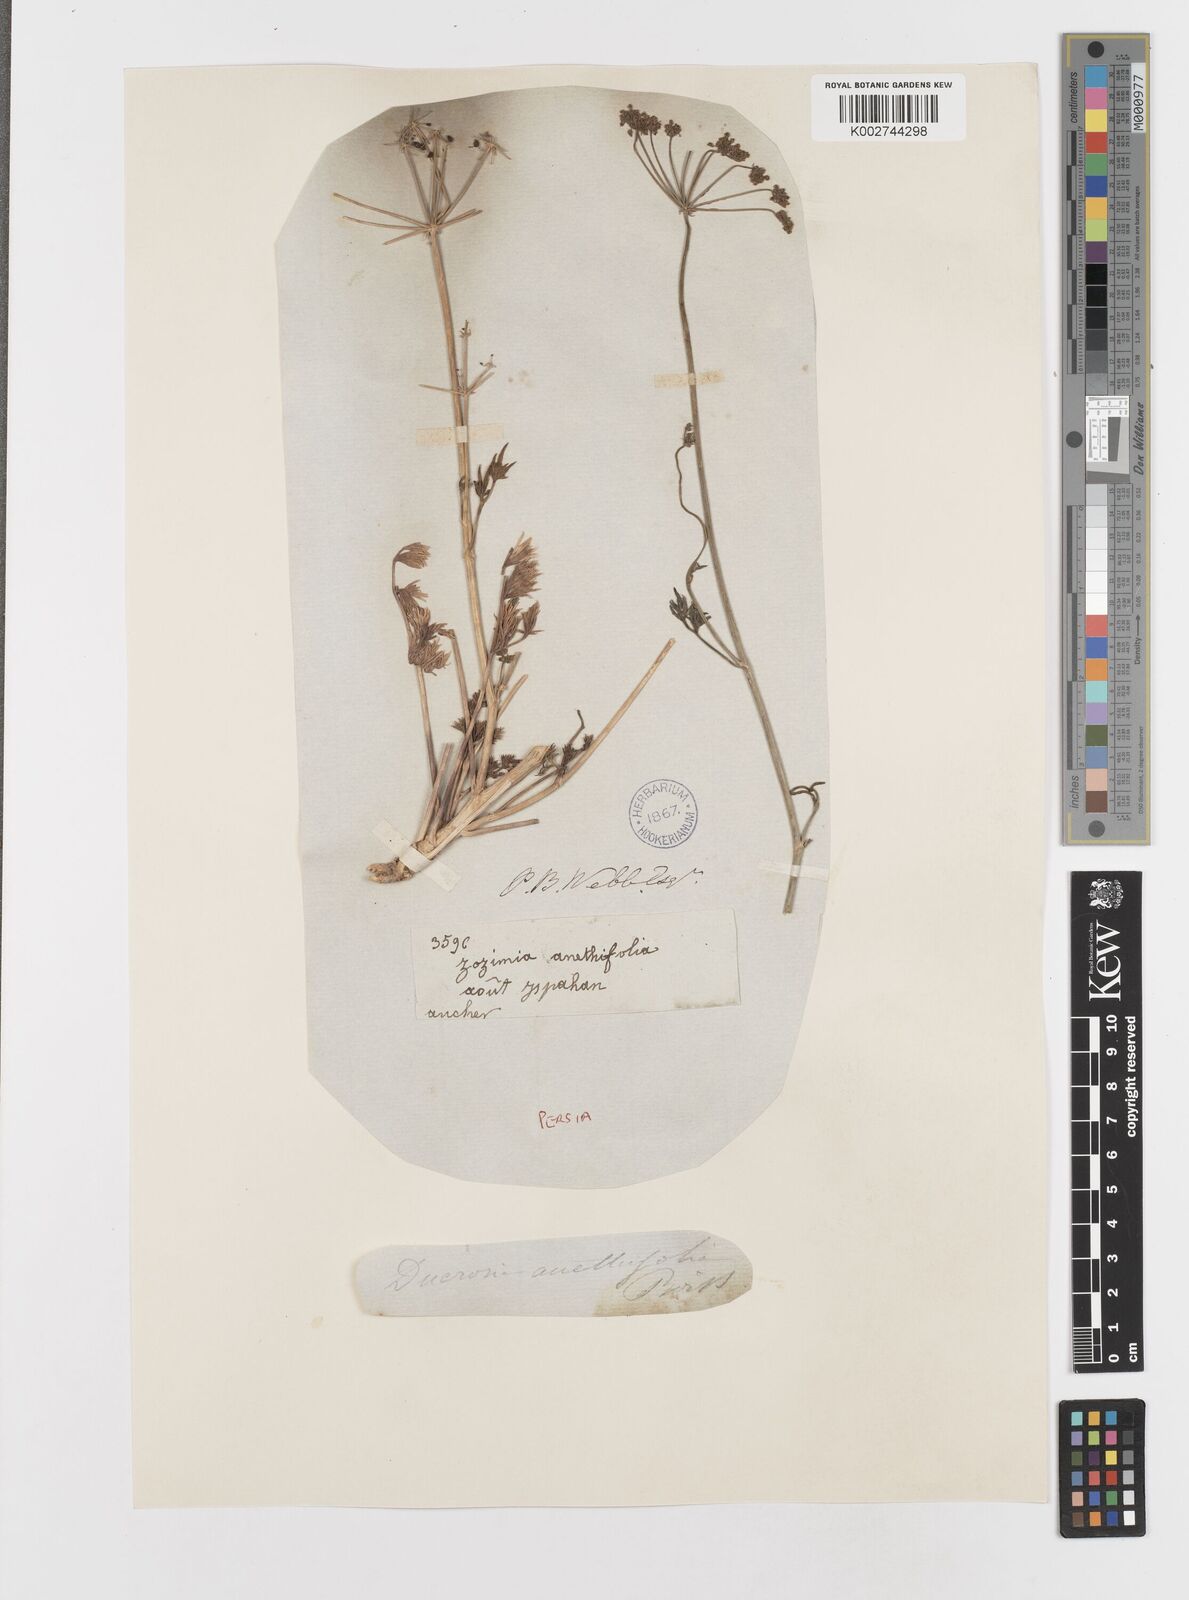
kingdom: Plantae
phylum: Tracheophyta
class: Magnoliopsida
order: Apiales
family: Apiaceae
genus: Ducrosia
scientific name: Ducrosia anethifolia
